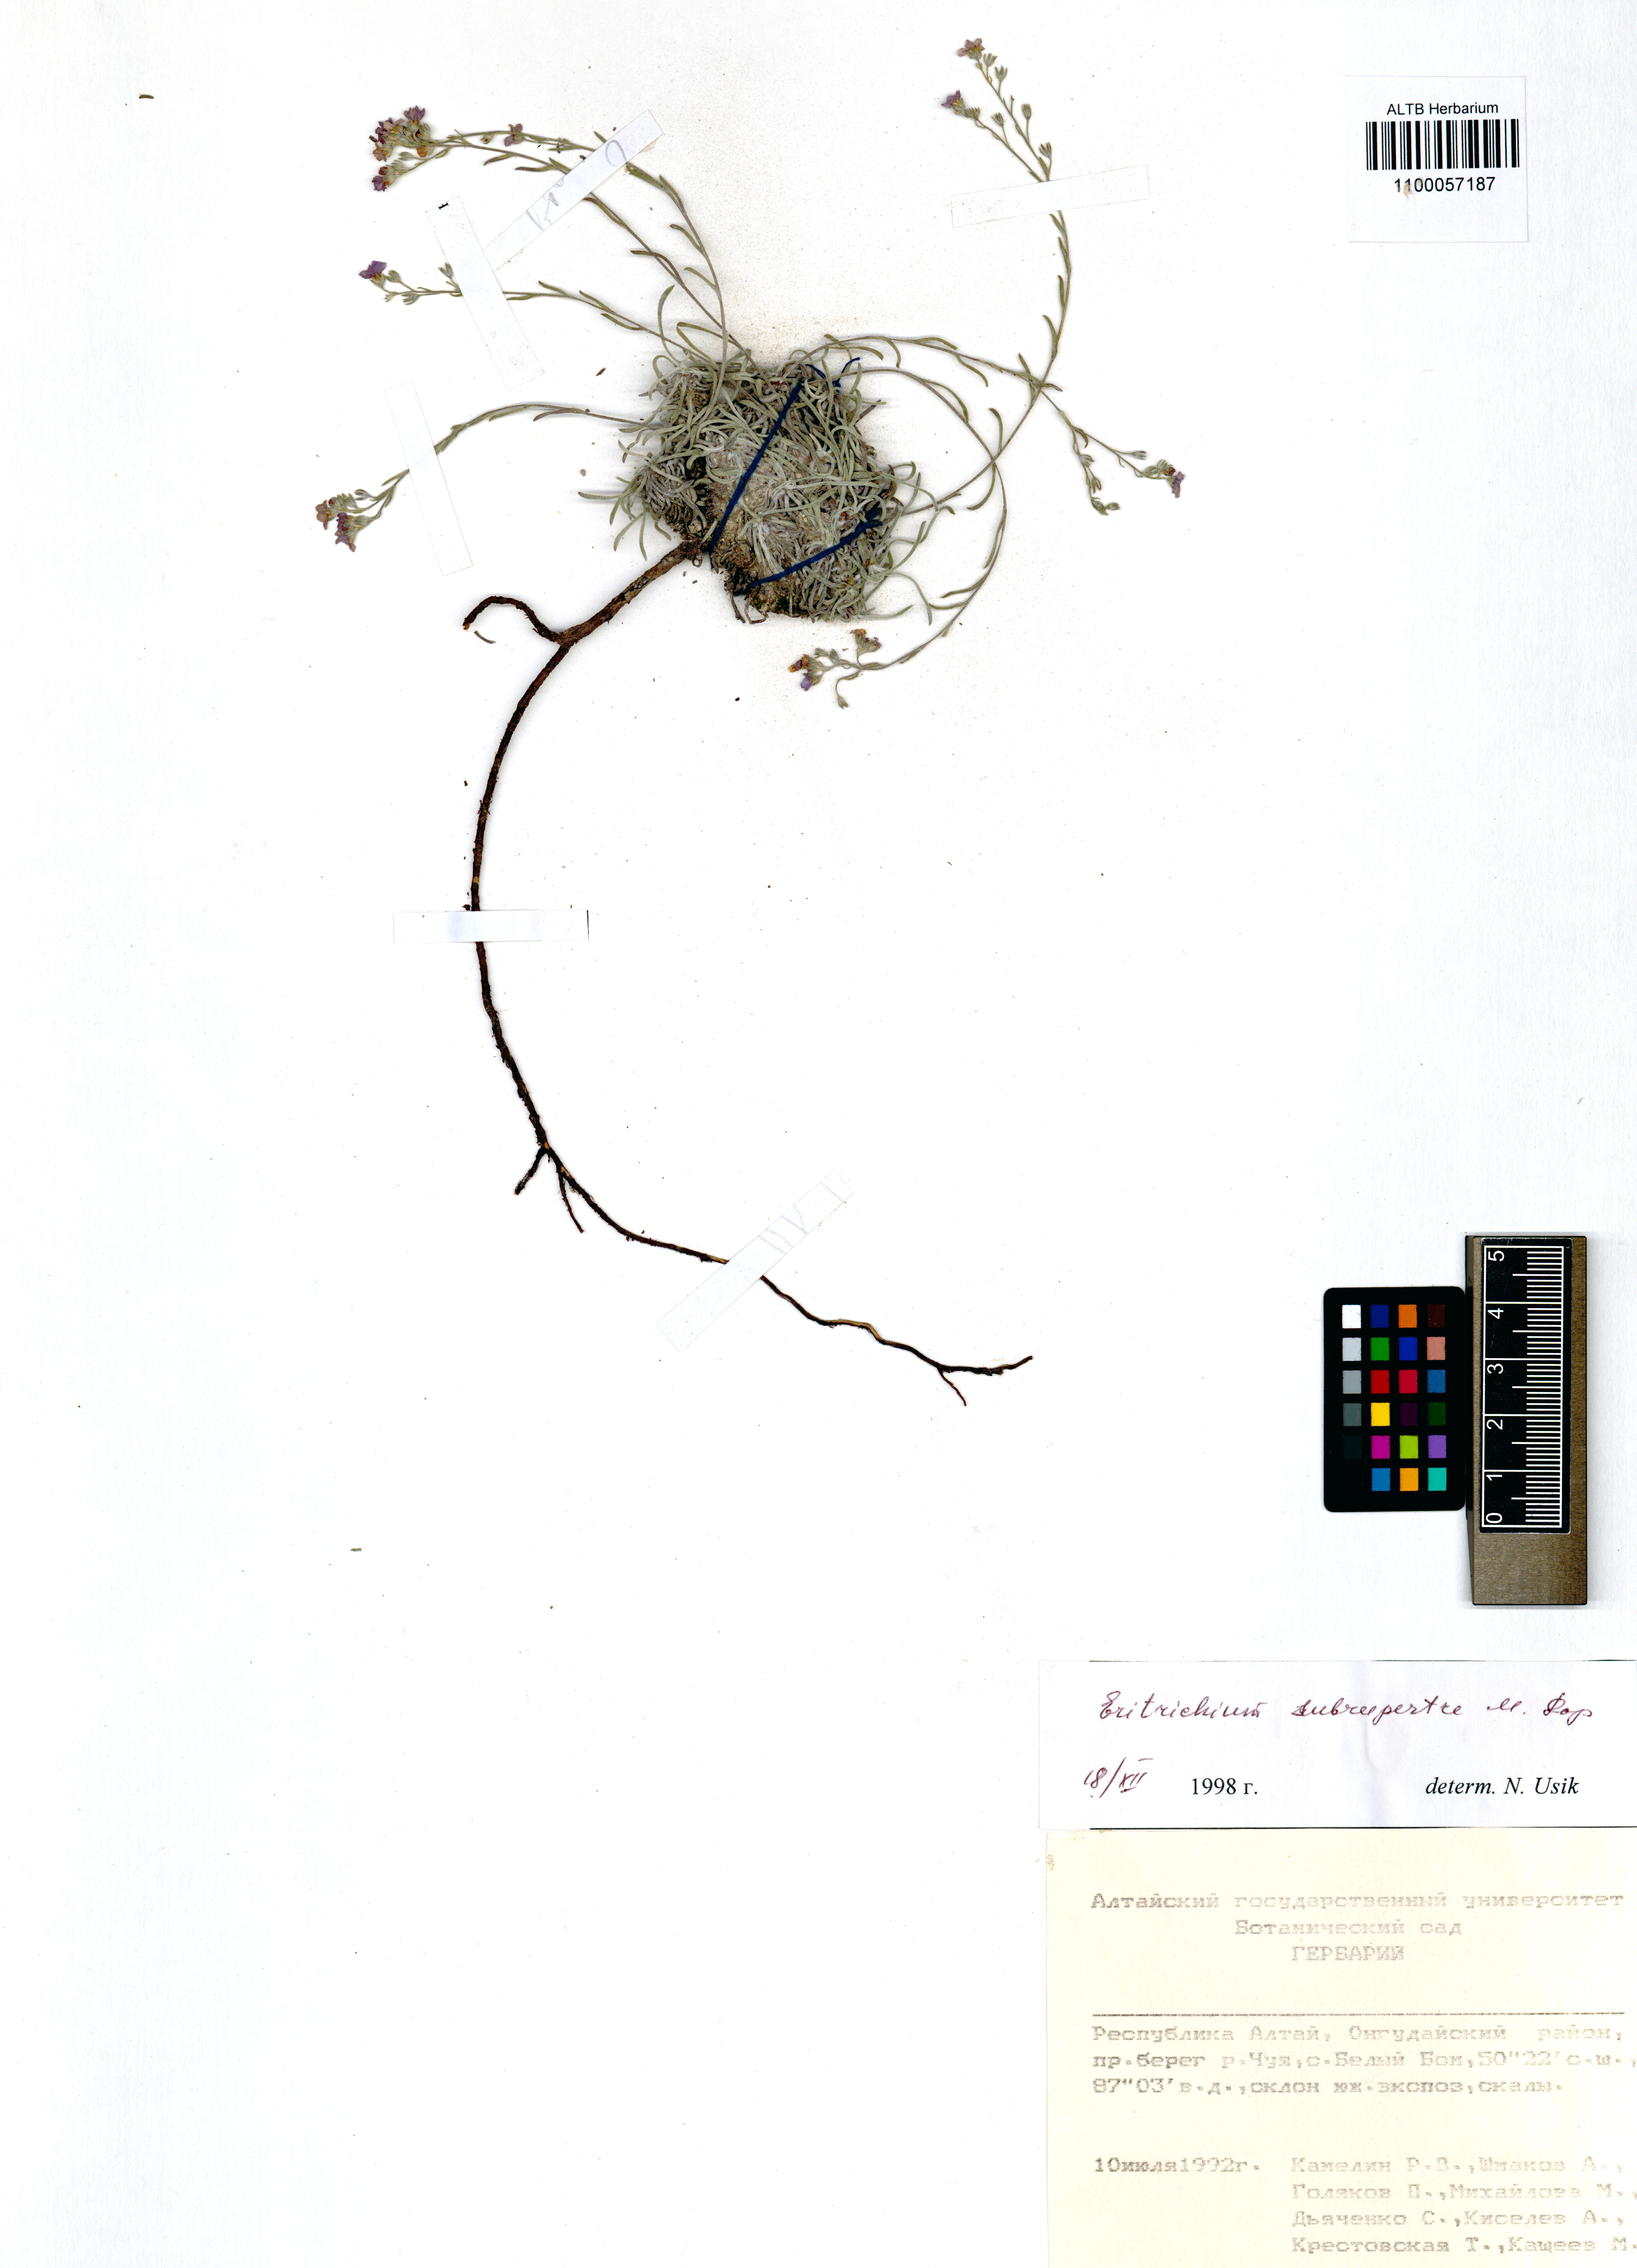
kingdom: Plantae
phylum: Tracheophyta
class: Magnoliopsida
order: Boraginales
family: Boraginaceae
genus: Eritrichium
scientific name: Eritrichium pauciflorum
